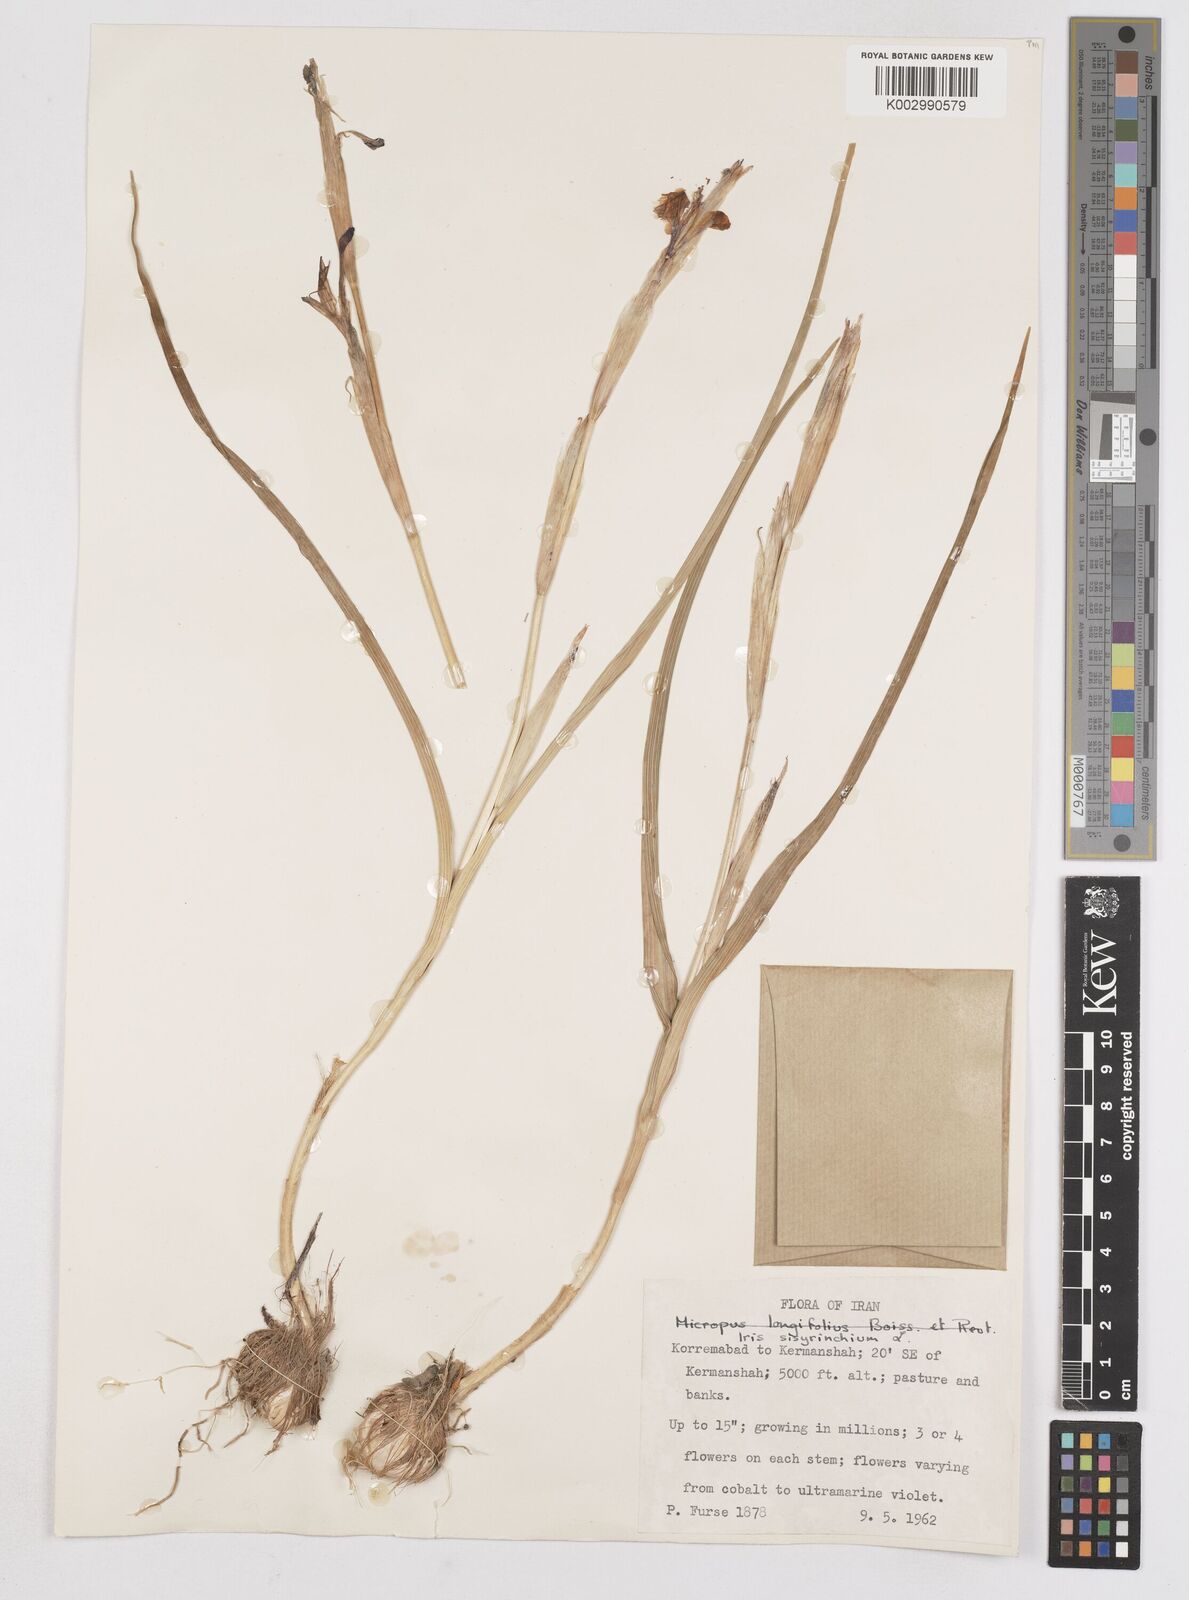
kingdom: Plantae
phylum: Tracheophyta
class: Liliopsida
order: Asparagales
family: Iridaceae
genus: Moraea
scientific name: Moraea sisyrinchium
